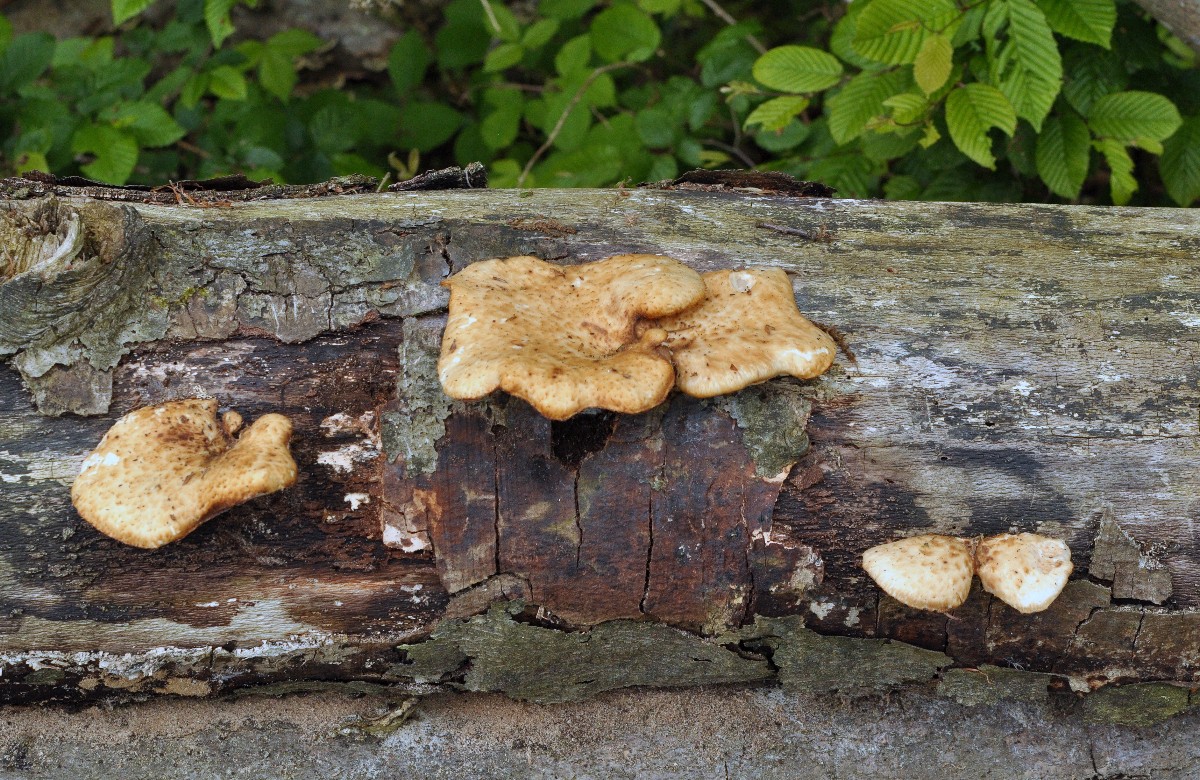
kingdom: Fungi
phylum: Basidiomycota
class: Agaricomycetes
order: Polyporales
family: Polyporaceae
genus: Cerioporus
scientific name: Cerioporus squamosus
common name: skællet stilkporesvamp
